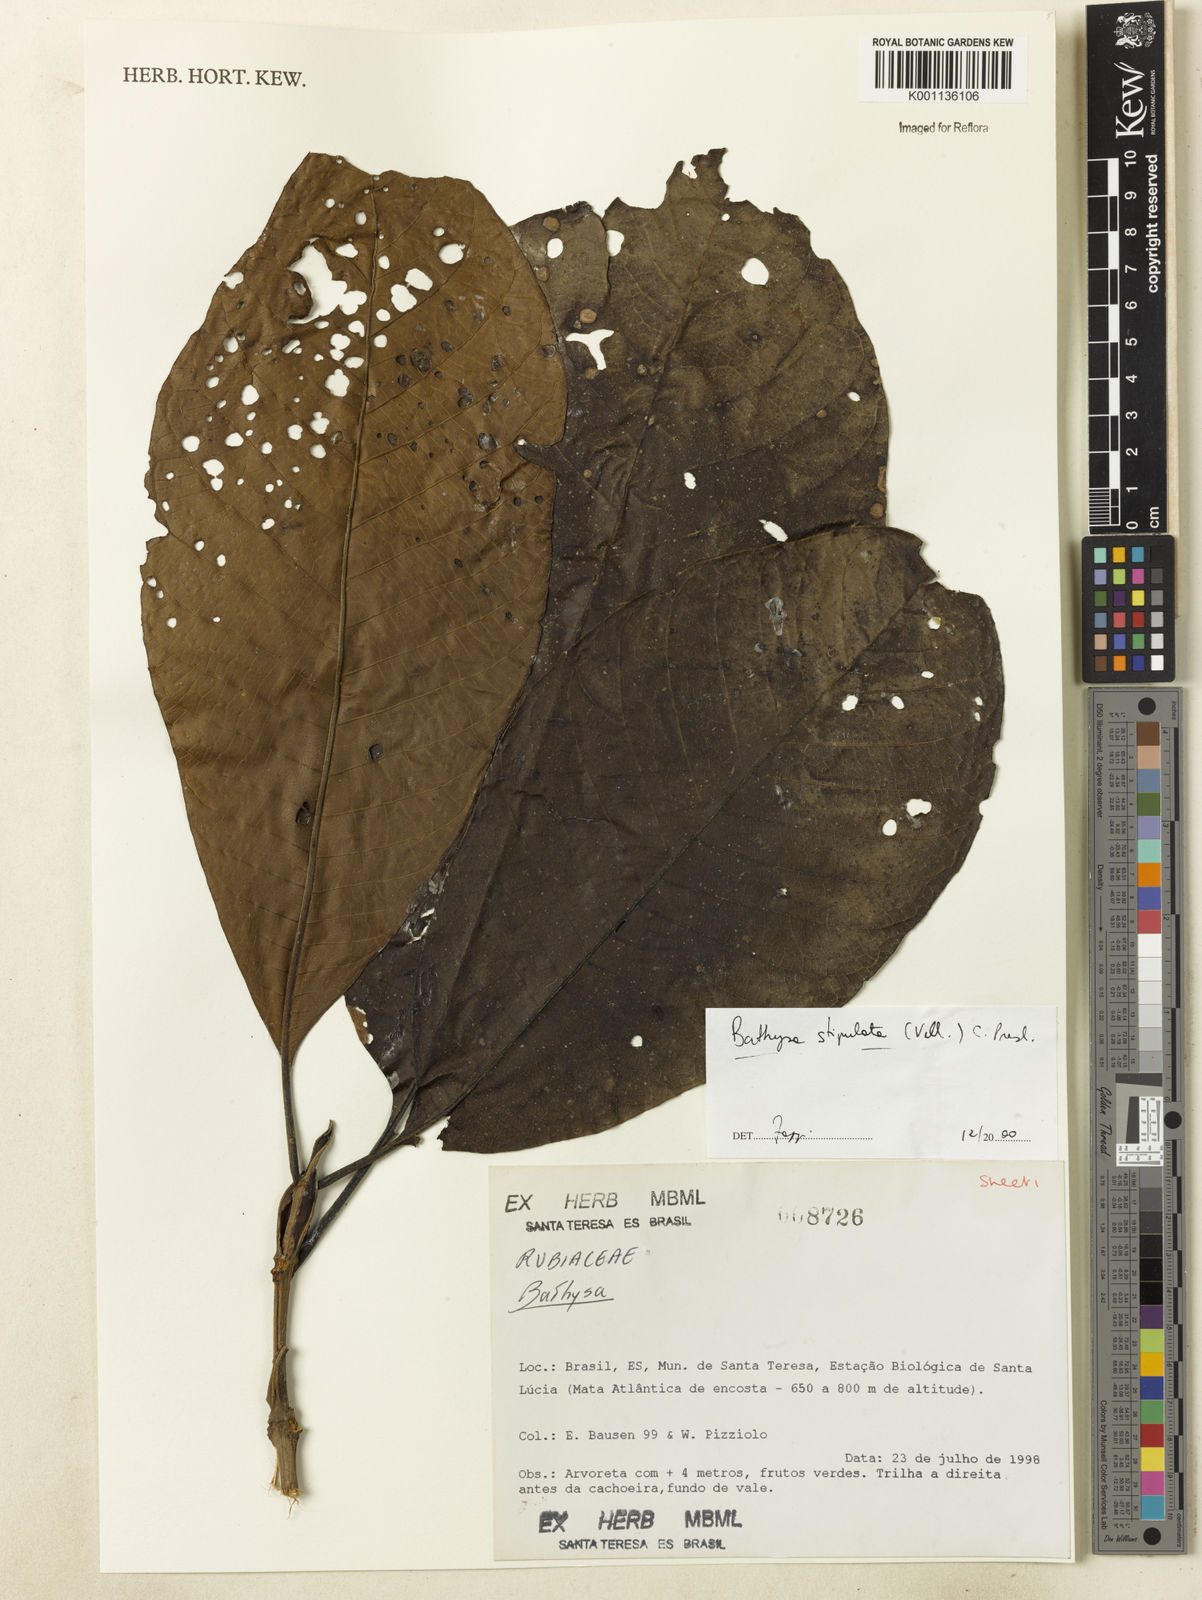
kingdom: Plantae
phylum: Tracheophyta
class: Magnoliopsida
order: Gentianales
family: Rubiaceae
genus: Bathysa
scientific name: Bathysa stipulata
